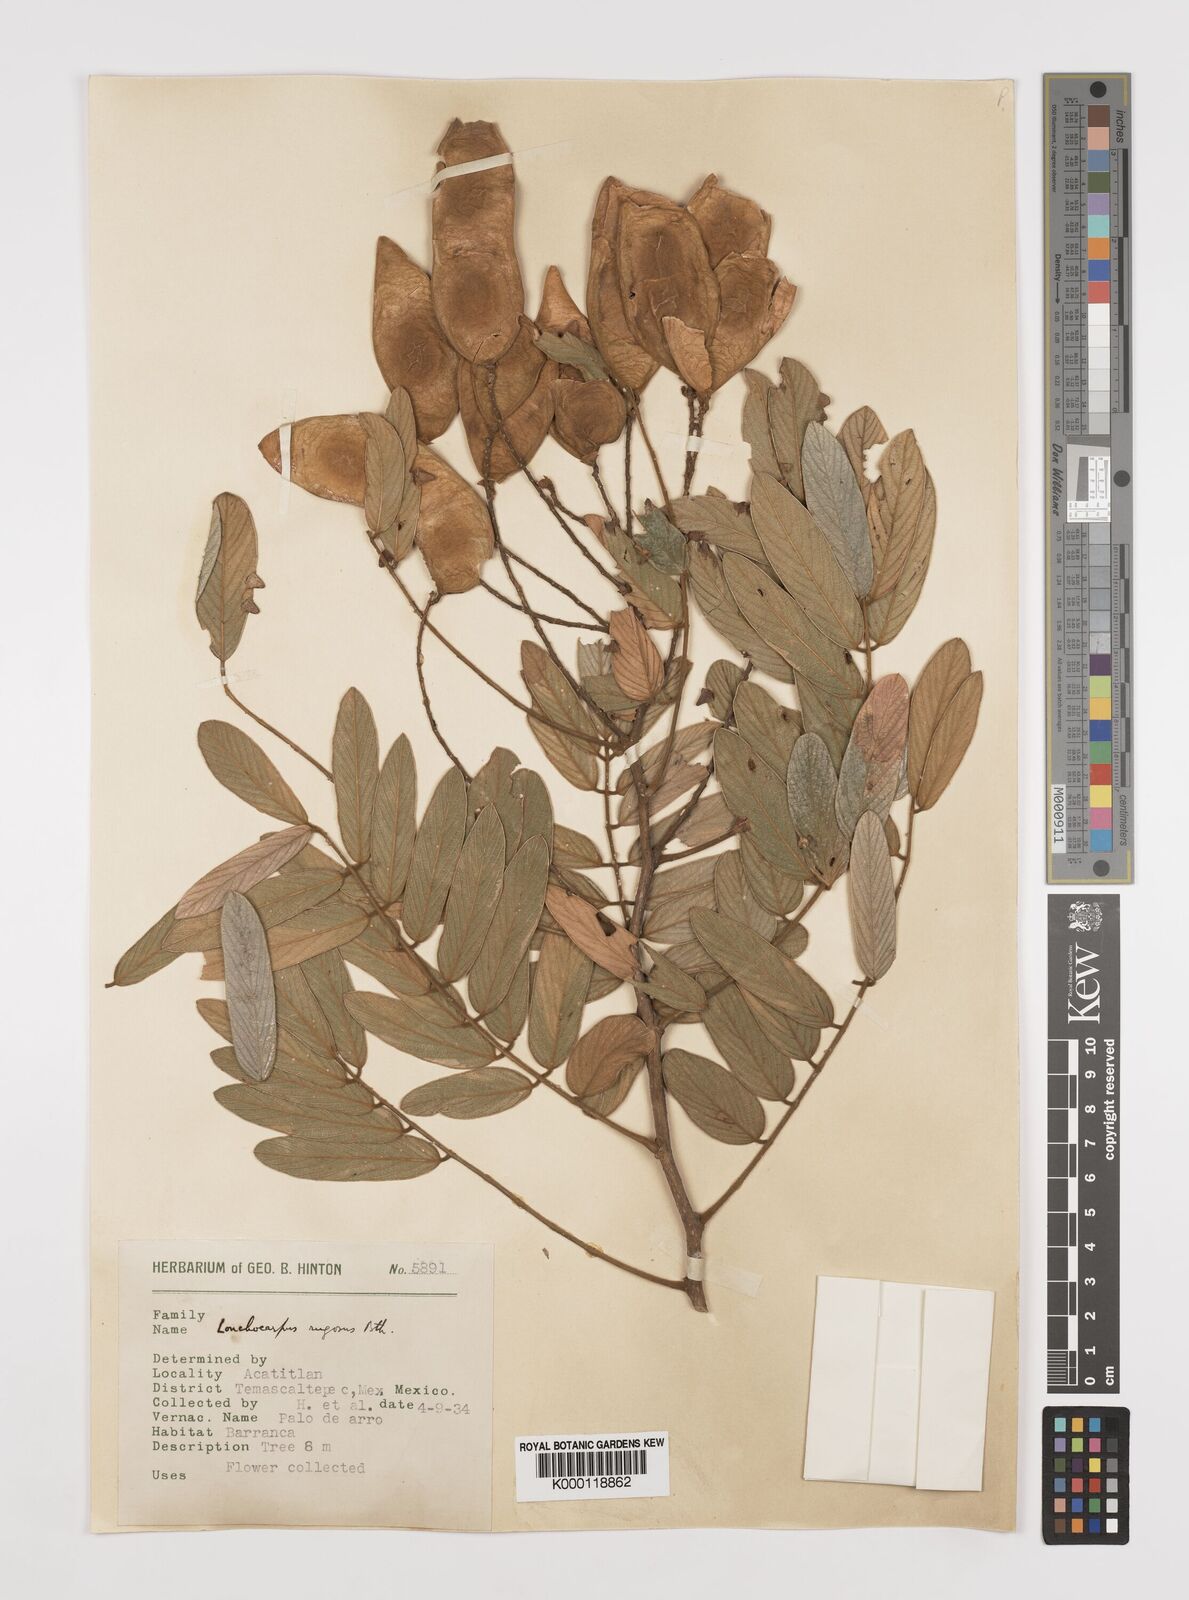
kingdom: Plantae
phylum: Tracheophyta
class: Magnoliopsida
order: Fabales
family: Fabaceae
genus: Lonchocarpus
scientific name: Lonchocarpus rugosus
